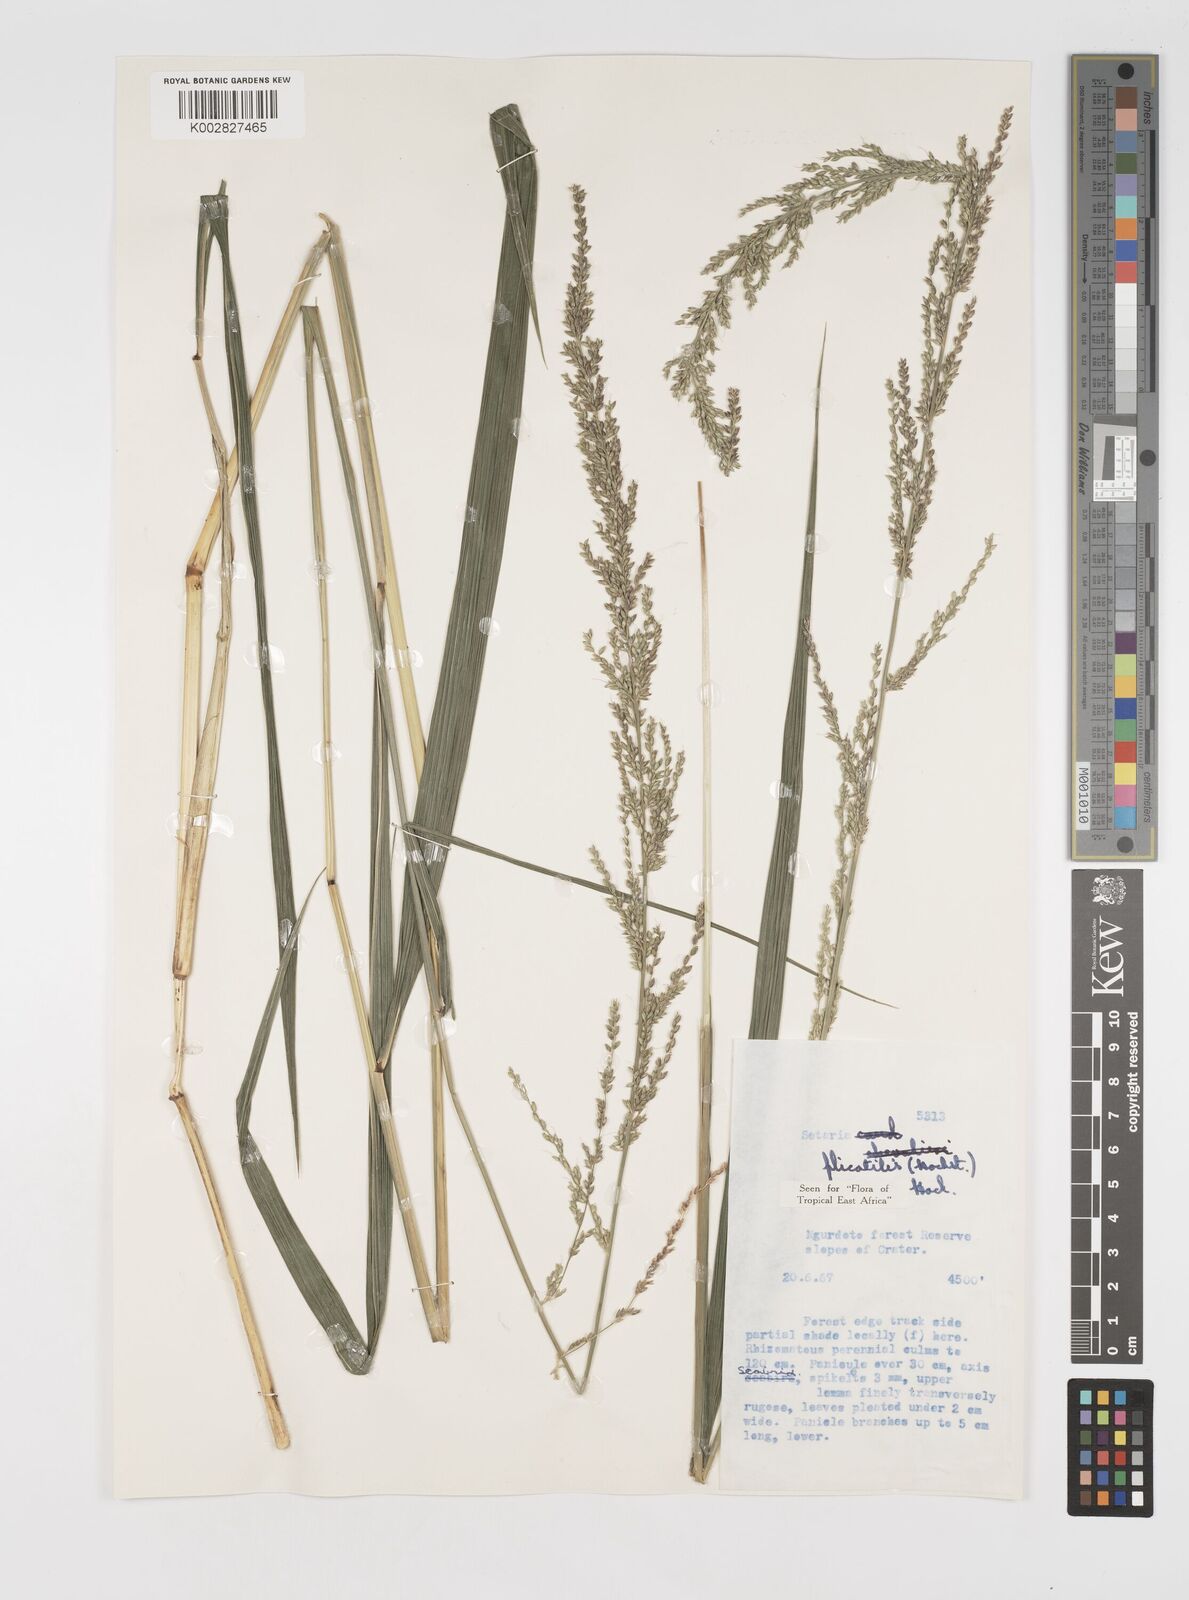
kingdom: Plantae
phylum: Tracheophyta
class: Liliopsida
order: Poales
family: Poaceae
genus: Setaria
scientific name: Setaria megaphylla
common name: Bigleaf bristlegrass
